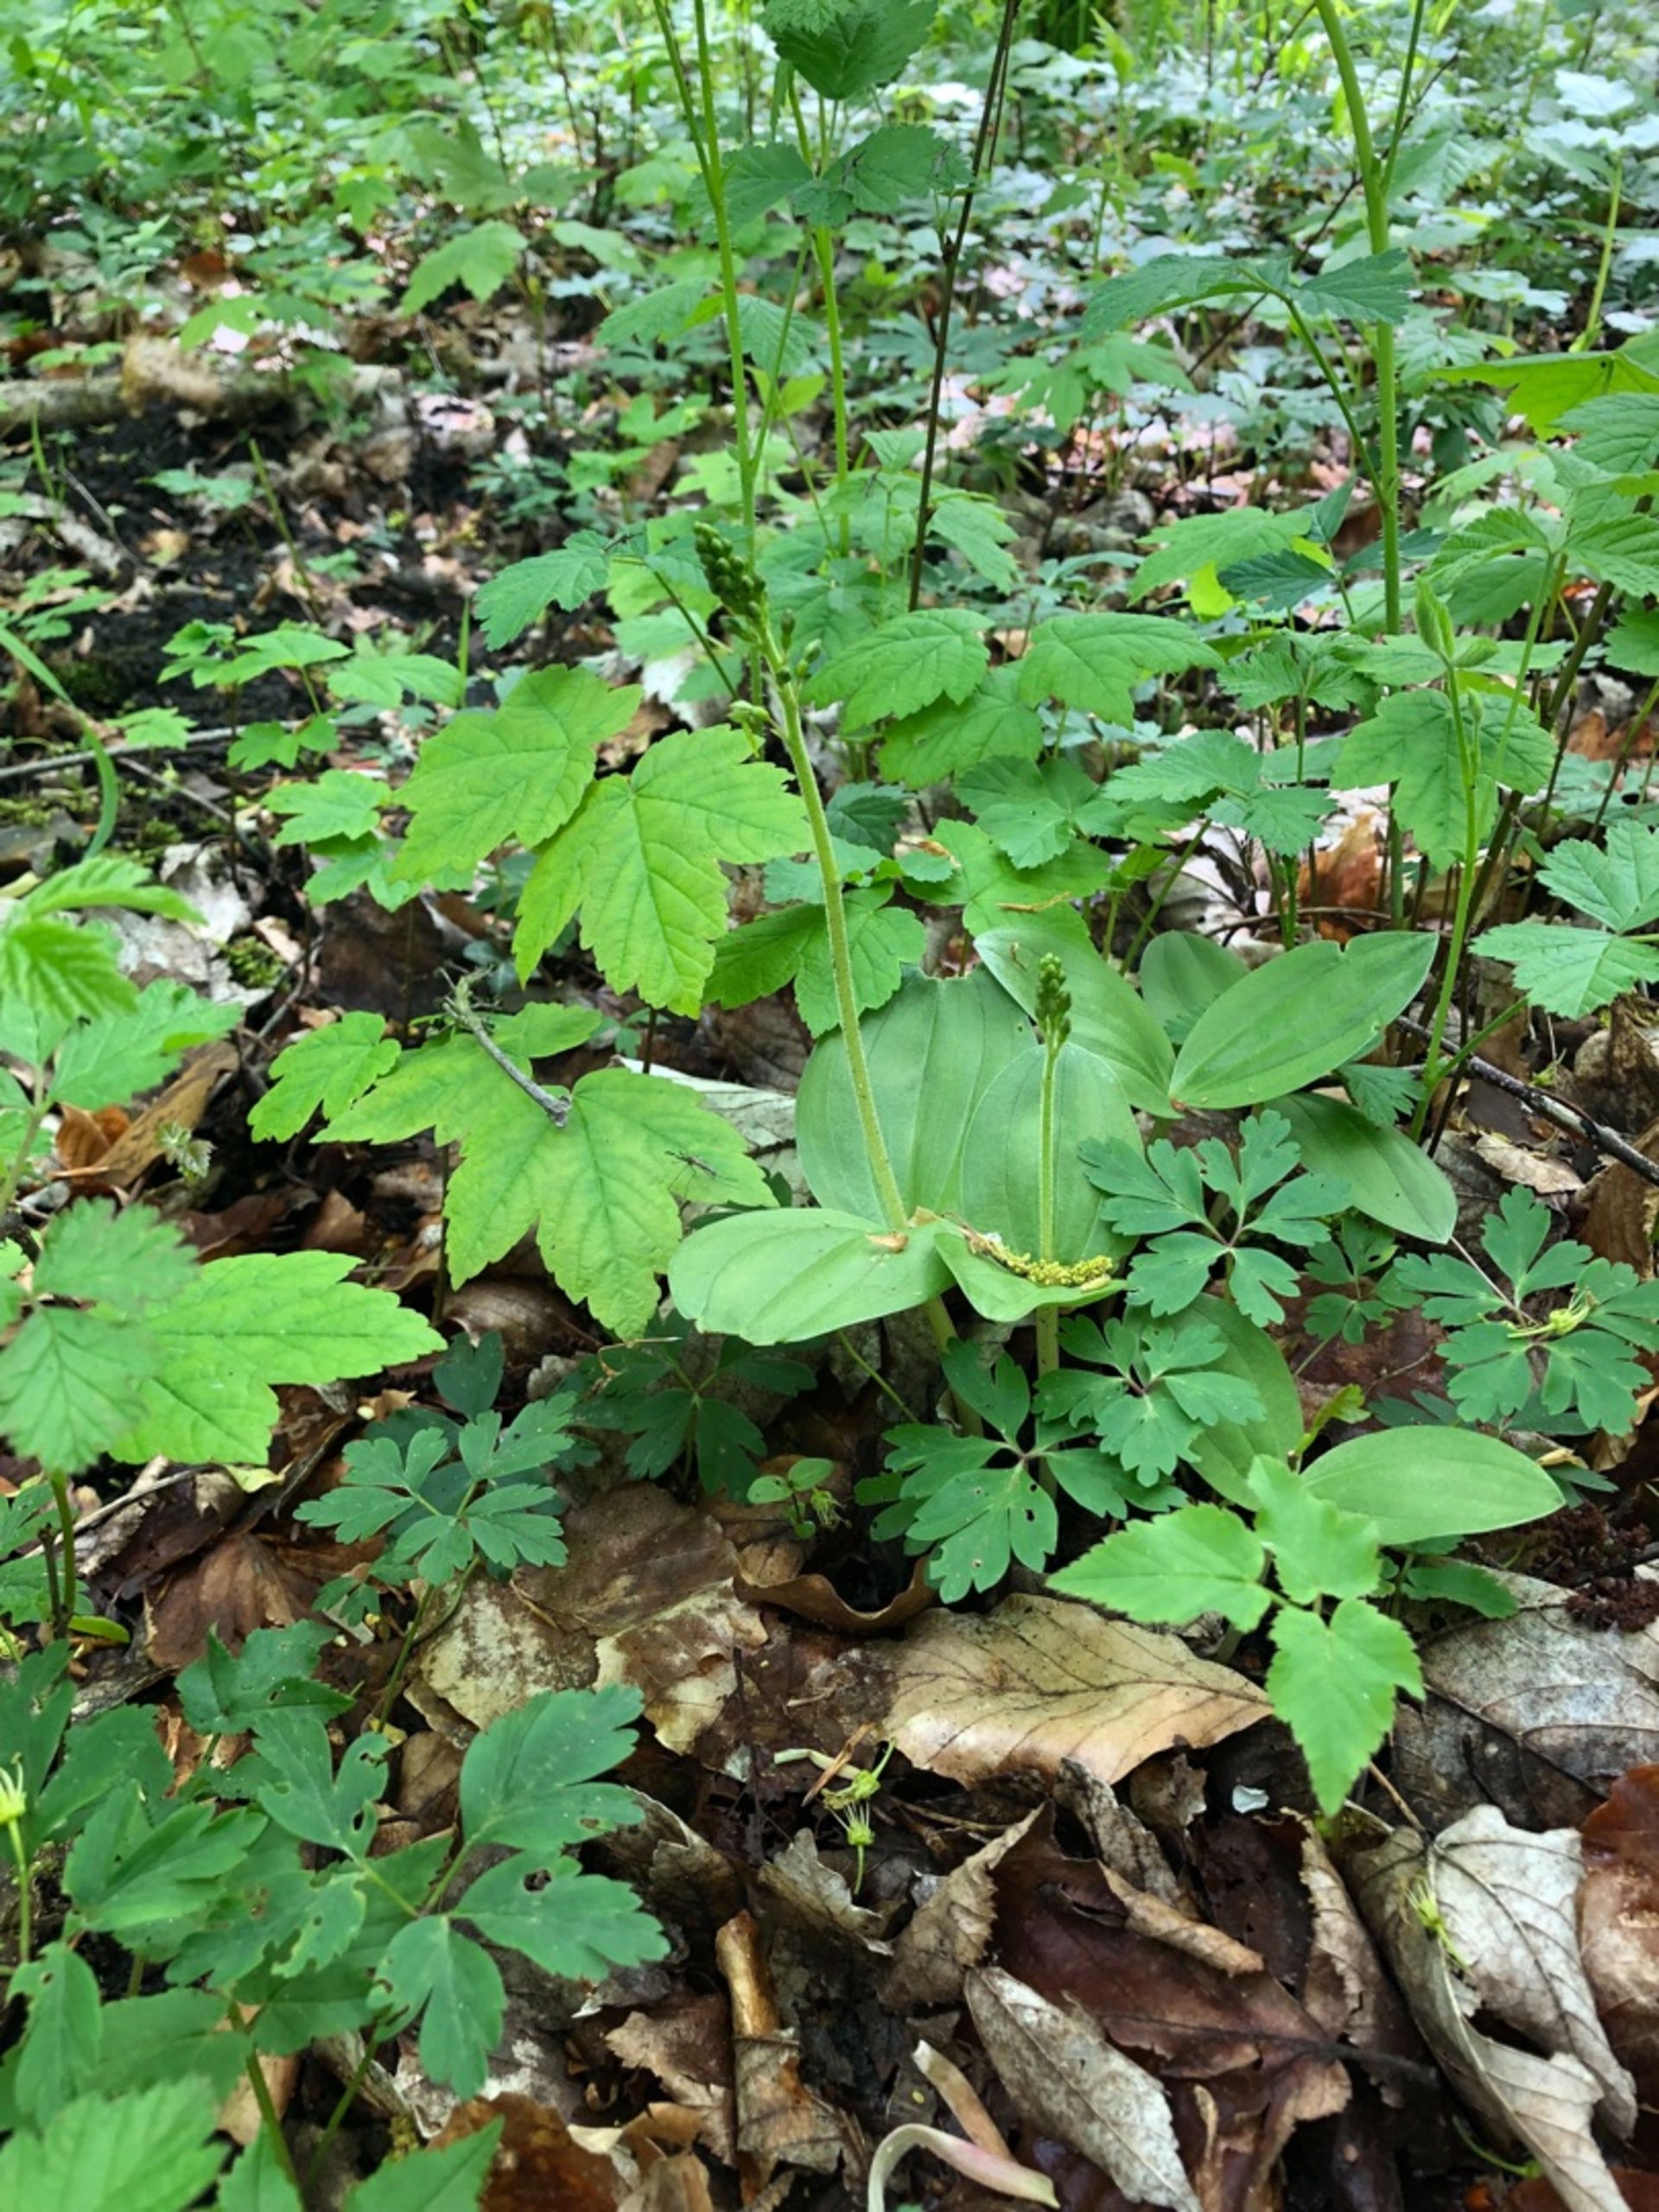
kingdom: Plantae
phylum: Tracheophyta
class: Liliopsida
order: Asparagales
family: Orchidaceae
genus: Neottia
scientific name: Neottia ovata
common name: Ægbladet fliglæbe
